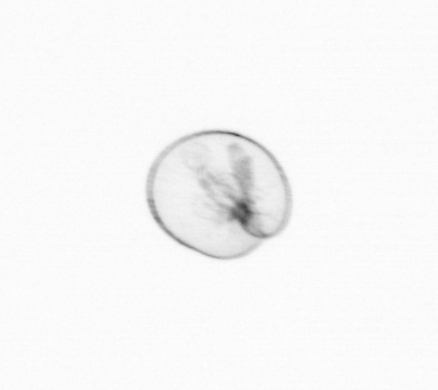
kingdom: Chromista
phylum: Myzozoa
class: Dinophyceae
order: Noctilucales
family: Noctilucaceae
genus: Noctiluca
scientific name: Noctiluca scintillans
